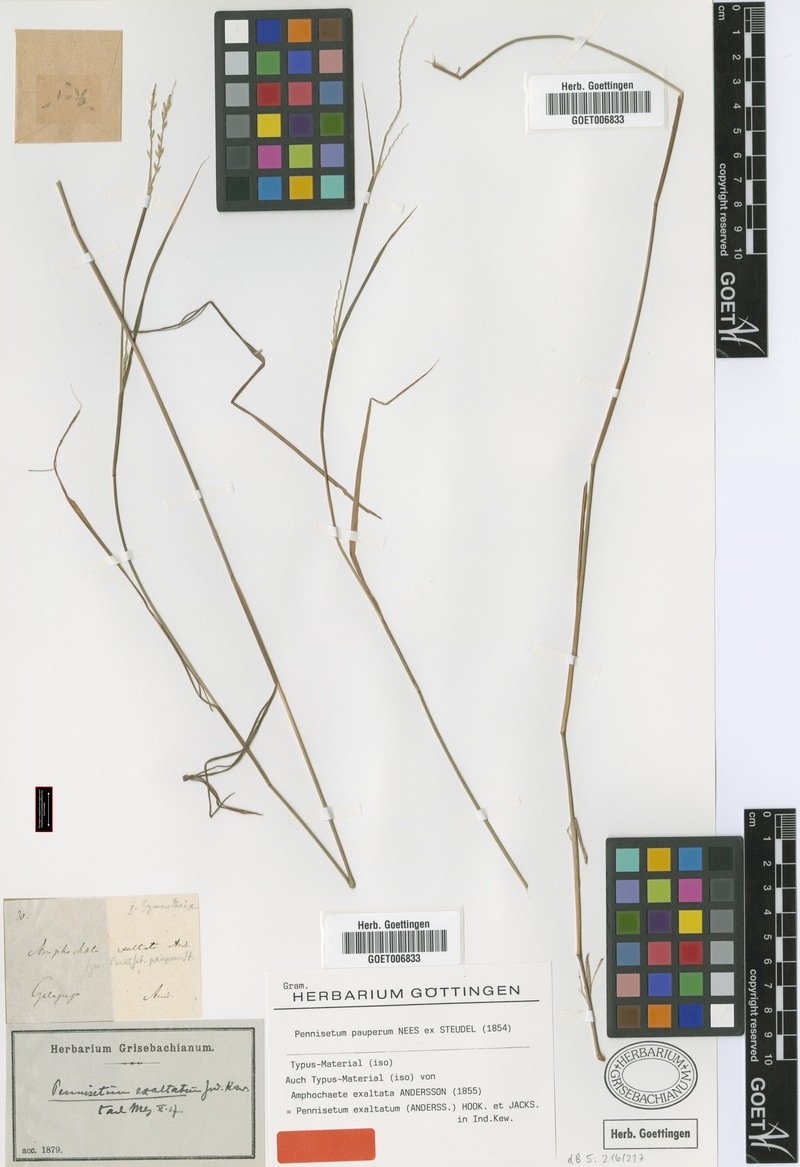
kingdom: Plantae
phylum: Tracheophyta
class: Liliopsida
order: Poales
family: Poaceae
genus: Cenchrus
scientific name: Cenchrus pauper
